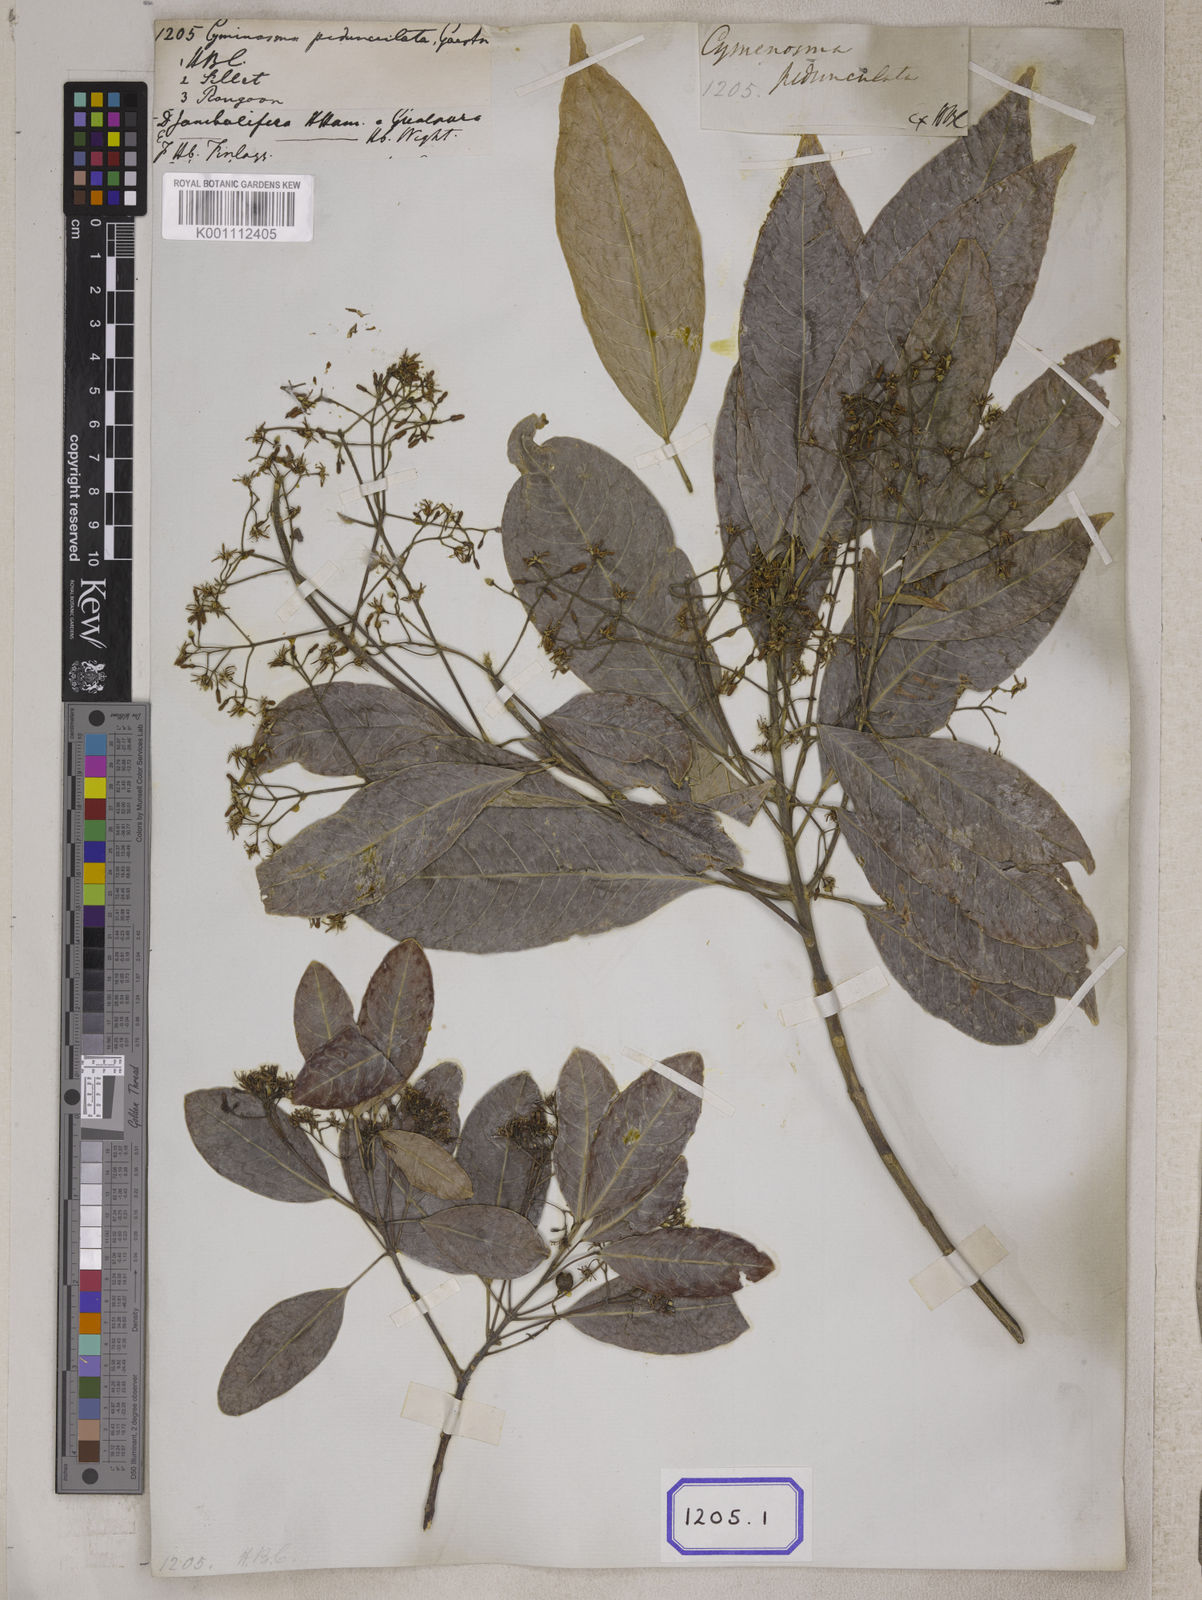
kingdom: Plantae
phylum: Tracheophyta
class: Magnoliopsida
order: Sapindales
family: Rutaceae
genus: Acronychia
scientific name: Acronychia
